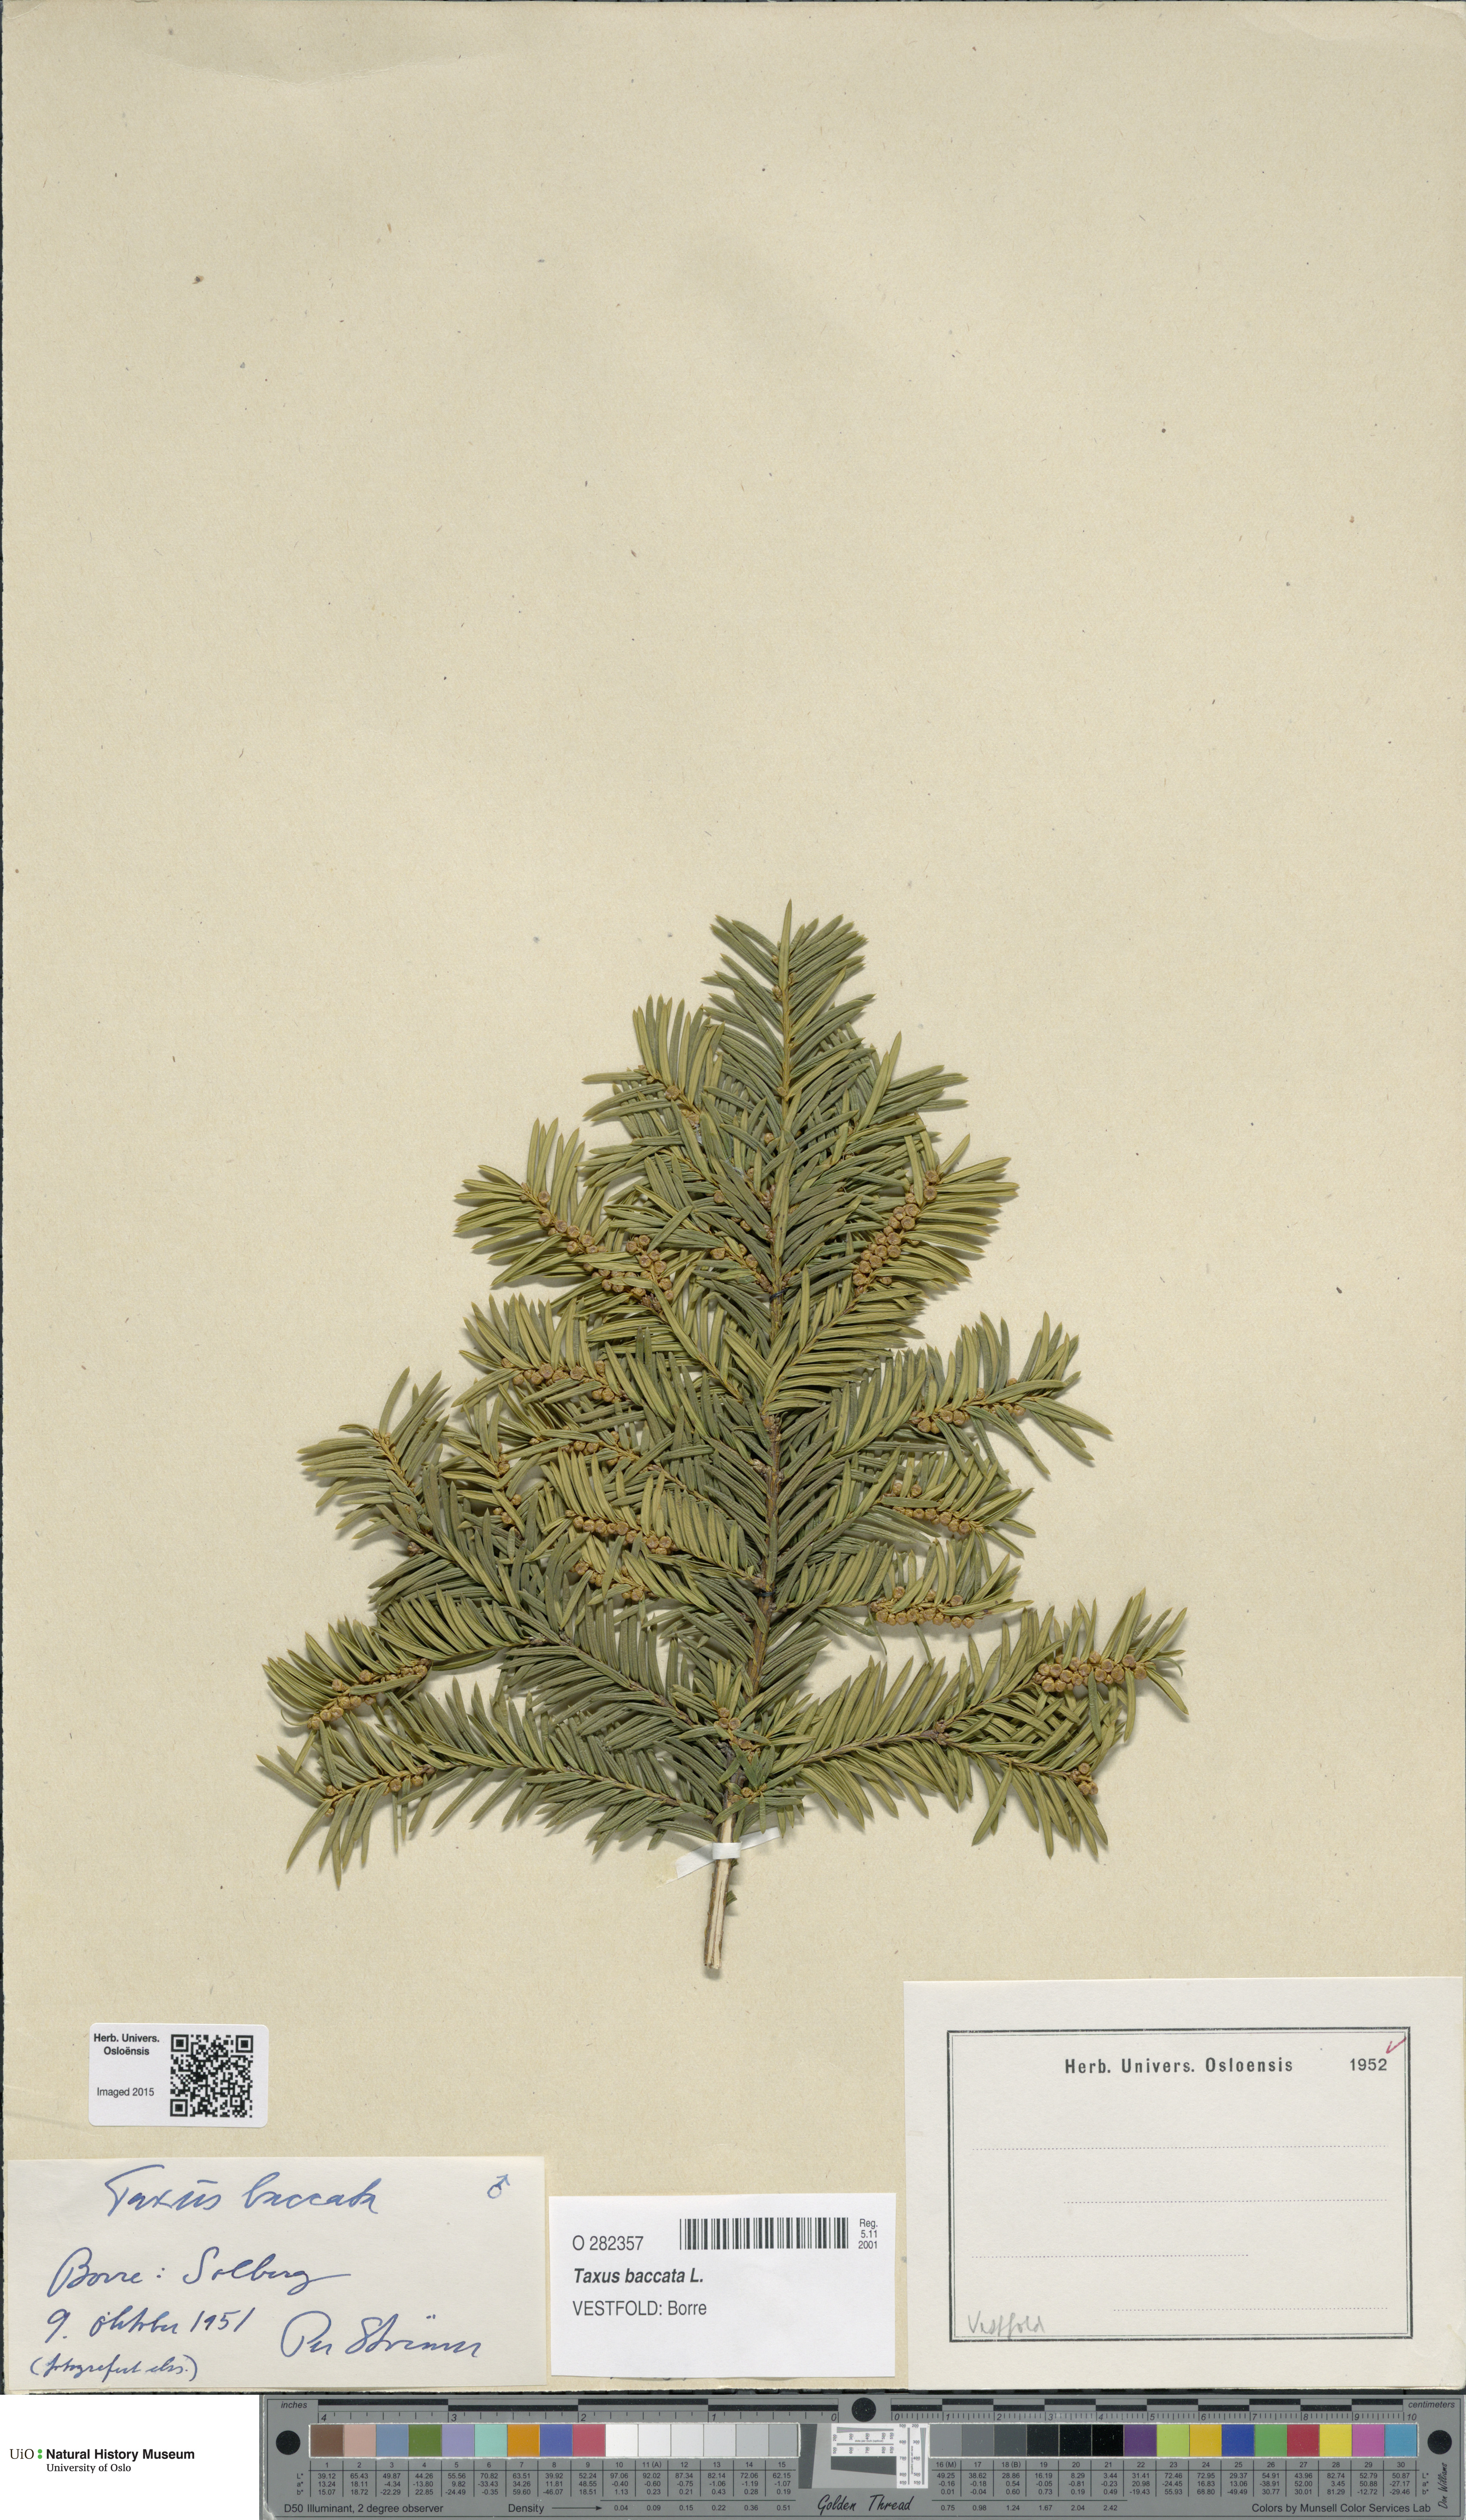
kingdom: Plantae
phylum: Tracheophyta
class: Pinopsida
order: Pinales
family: Taxaceae
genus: Taxus
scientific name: Taxus baccata
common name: Yew
